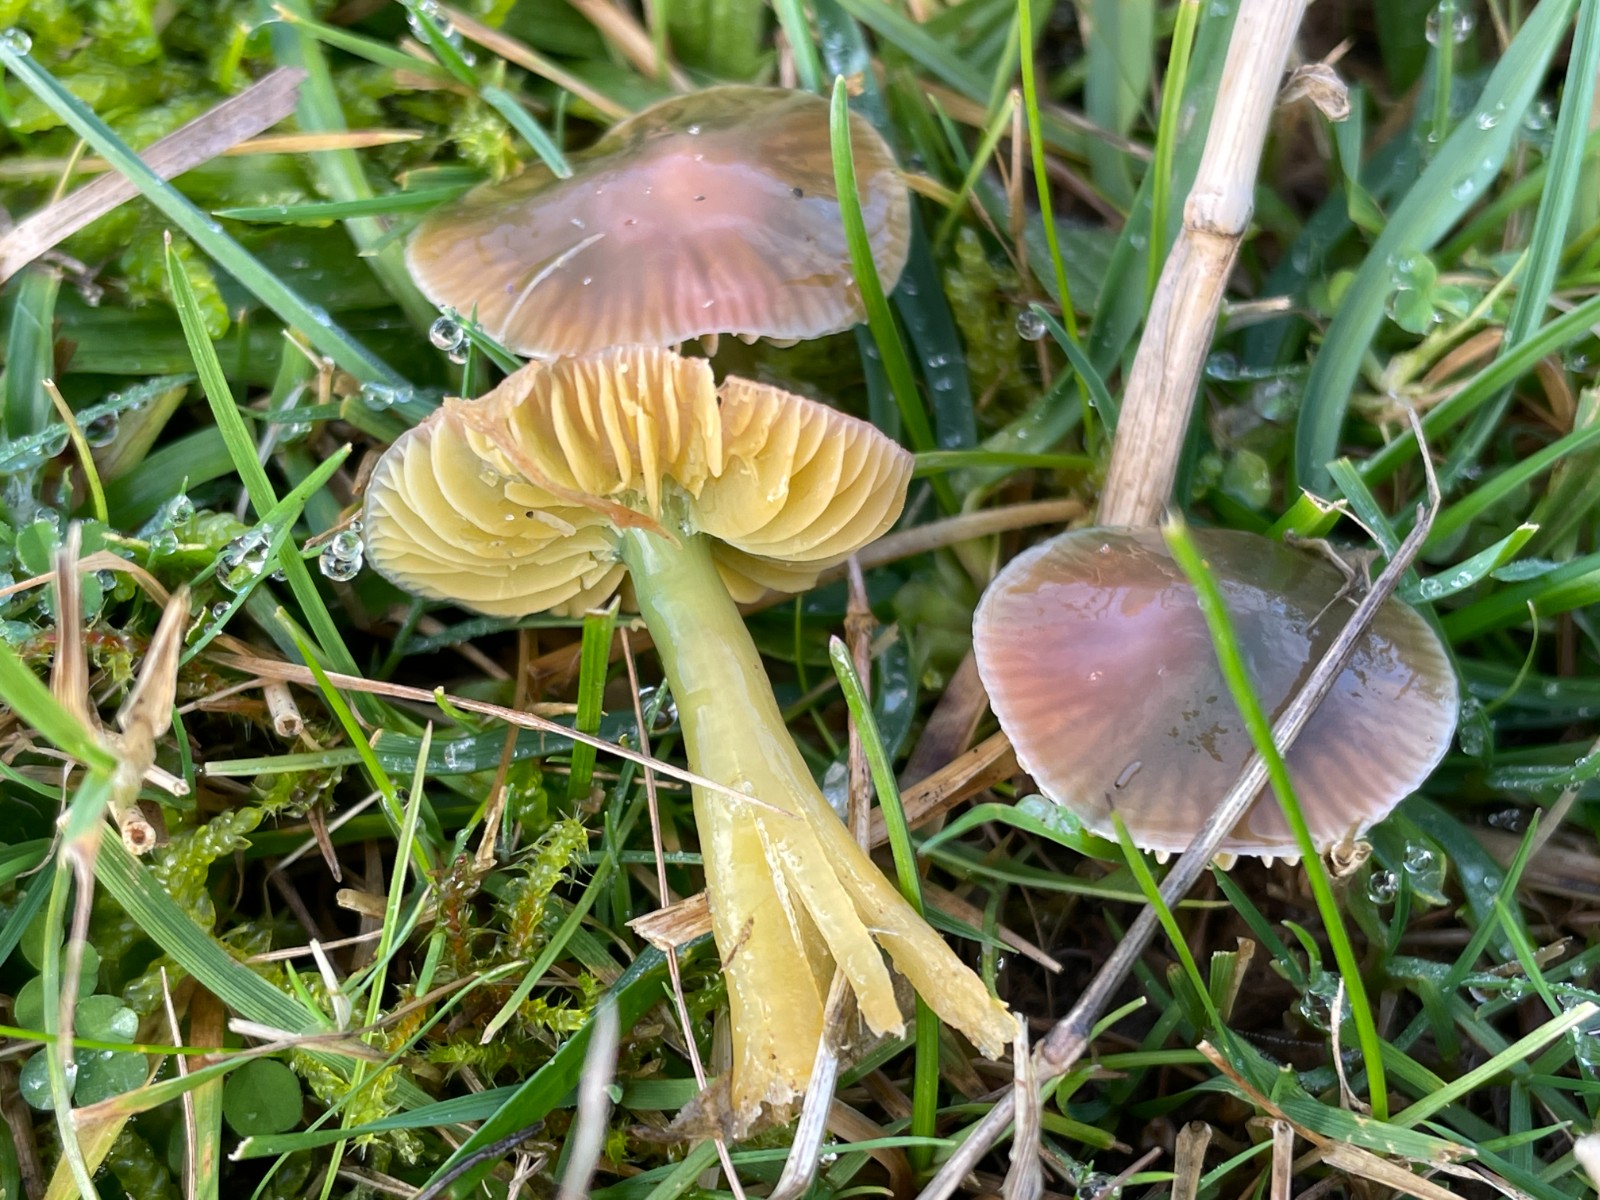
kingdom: Fungi
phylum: Basidiomycota
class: Agaricomycetes
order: Agaricales
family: Hygrophoraceae
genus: Gliophorus
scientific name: Gliophorus psittacinus
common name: papegøje-vokshat
